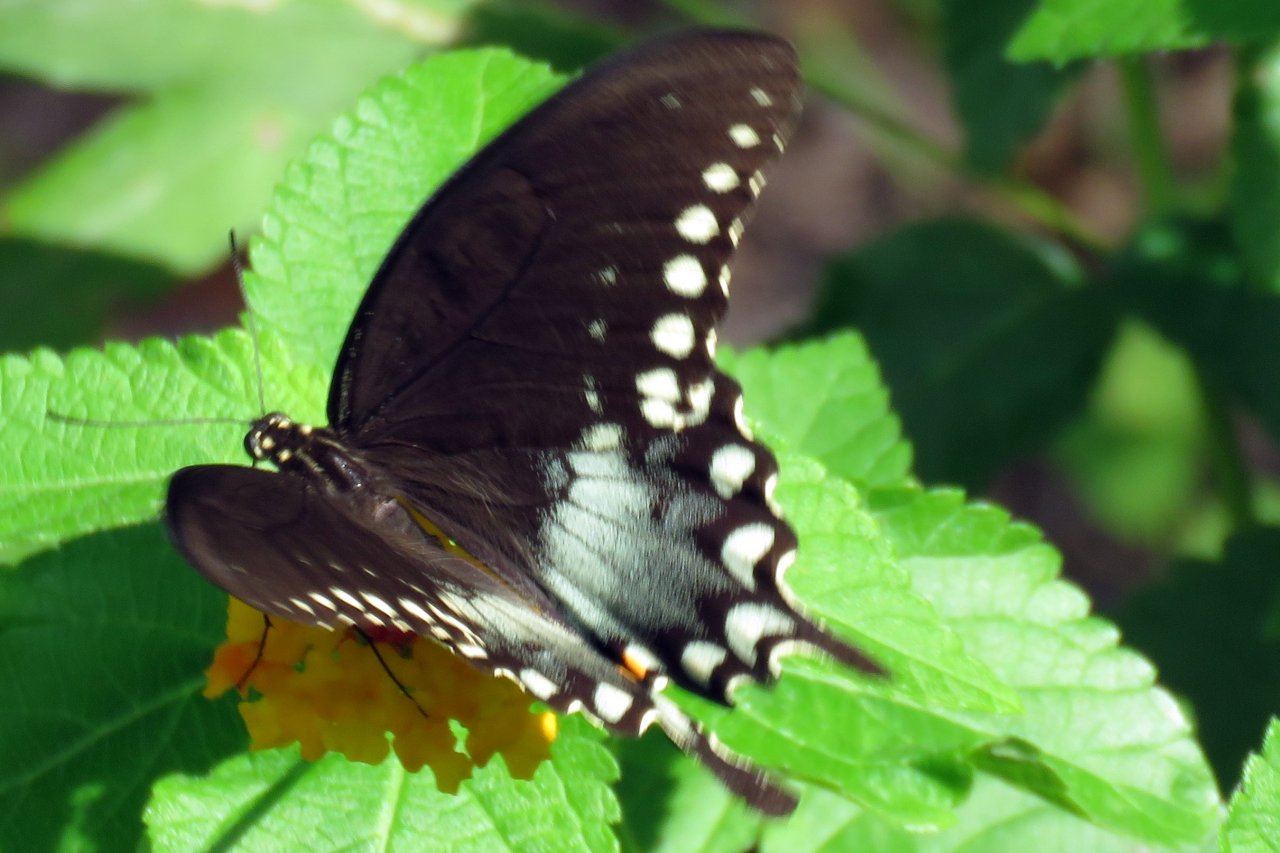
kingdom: Animalia
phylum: Arthropoda
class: Insecta
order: Lepidoptera
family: Papilionidae
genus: Pterourus
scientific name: Pterourus troilus
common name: Spicebush Swallowtail
